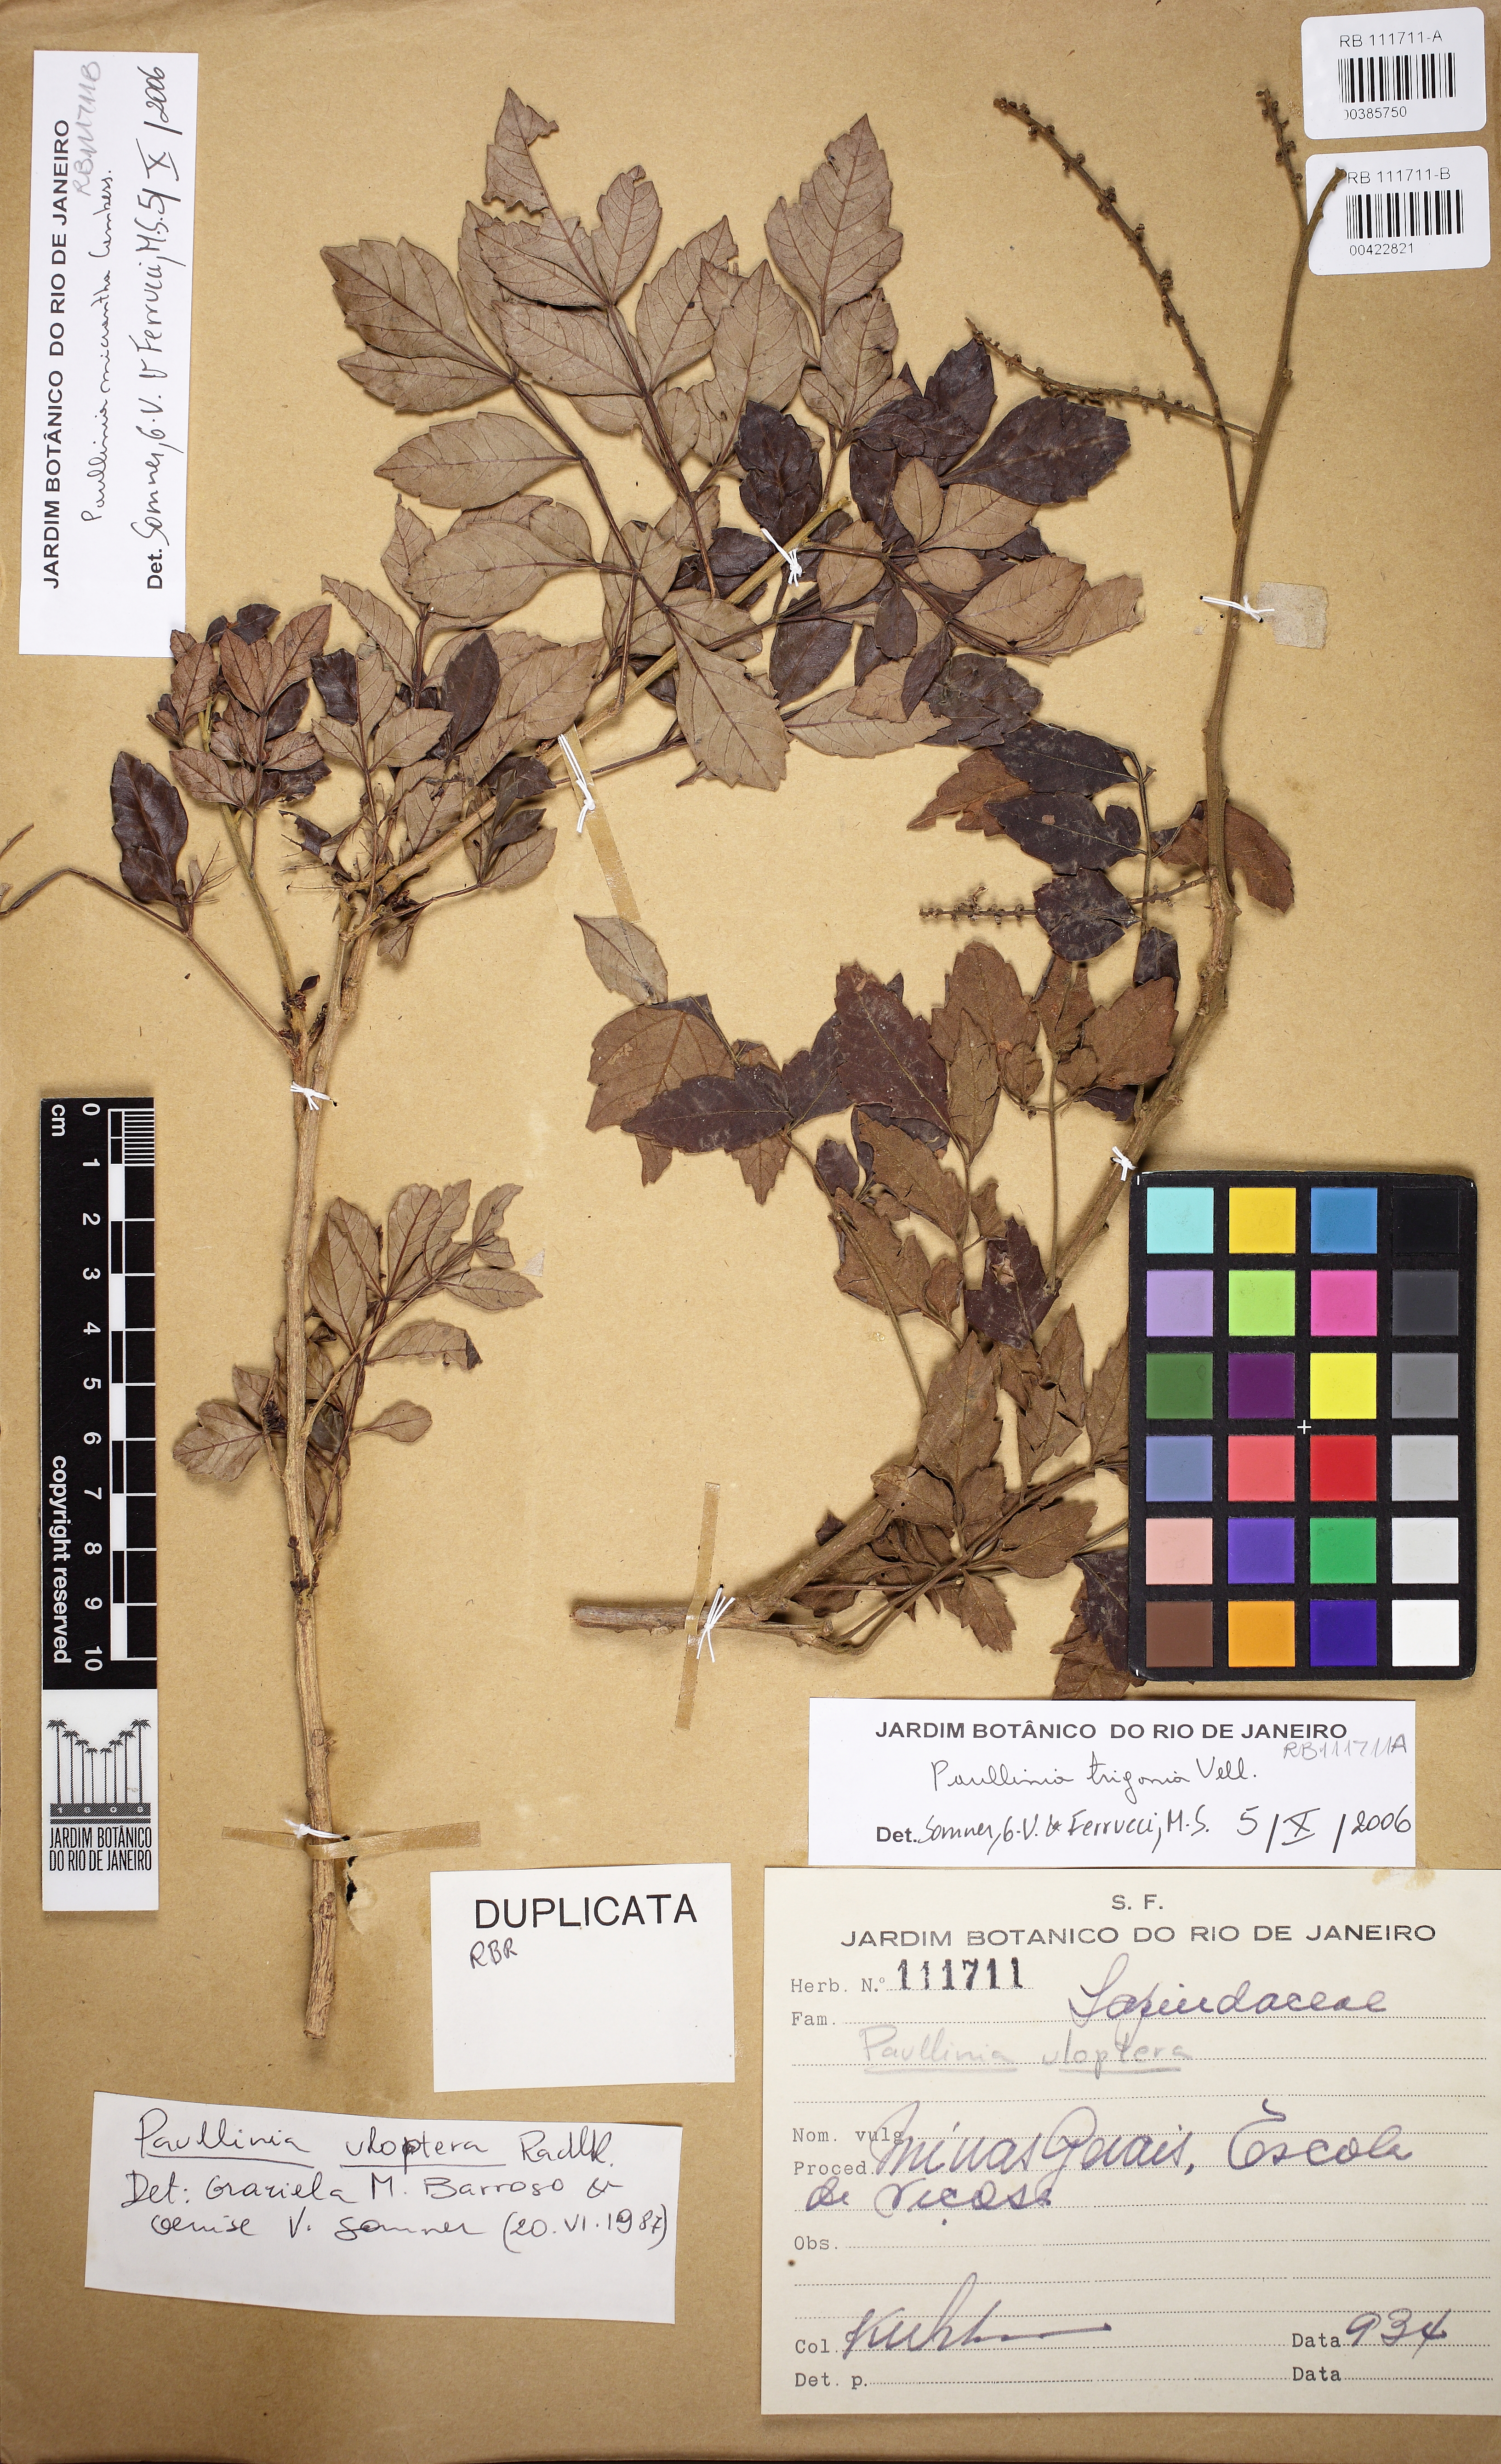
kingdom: Plantae
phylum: Tracheophyta
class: Magnoliopsida
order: Sapindales
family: Sapindaceae
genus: Paullinia
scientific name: Paullinia trigonia
